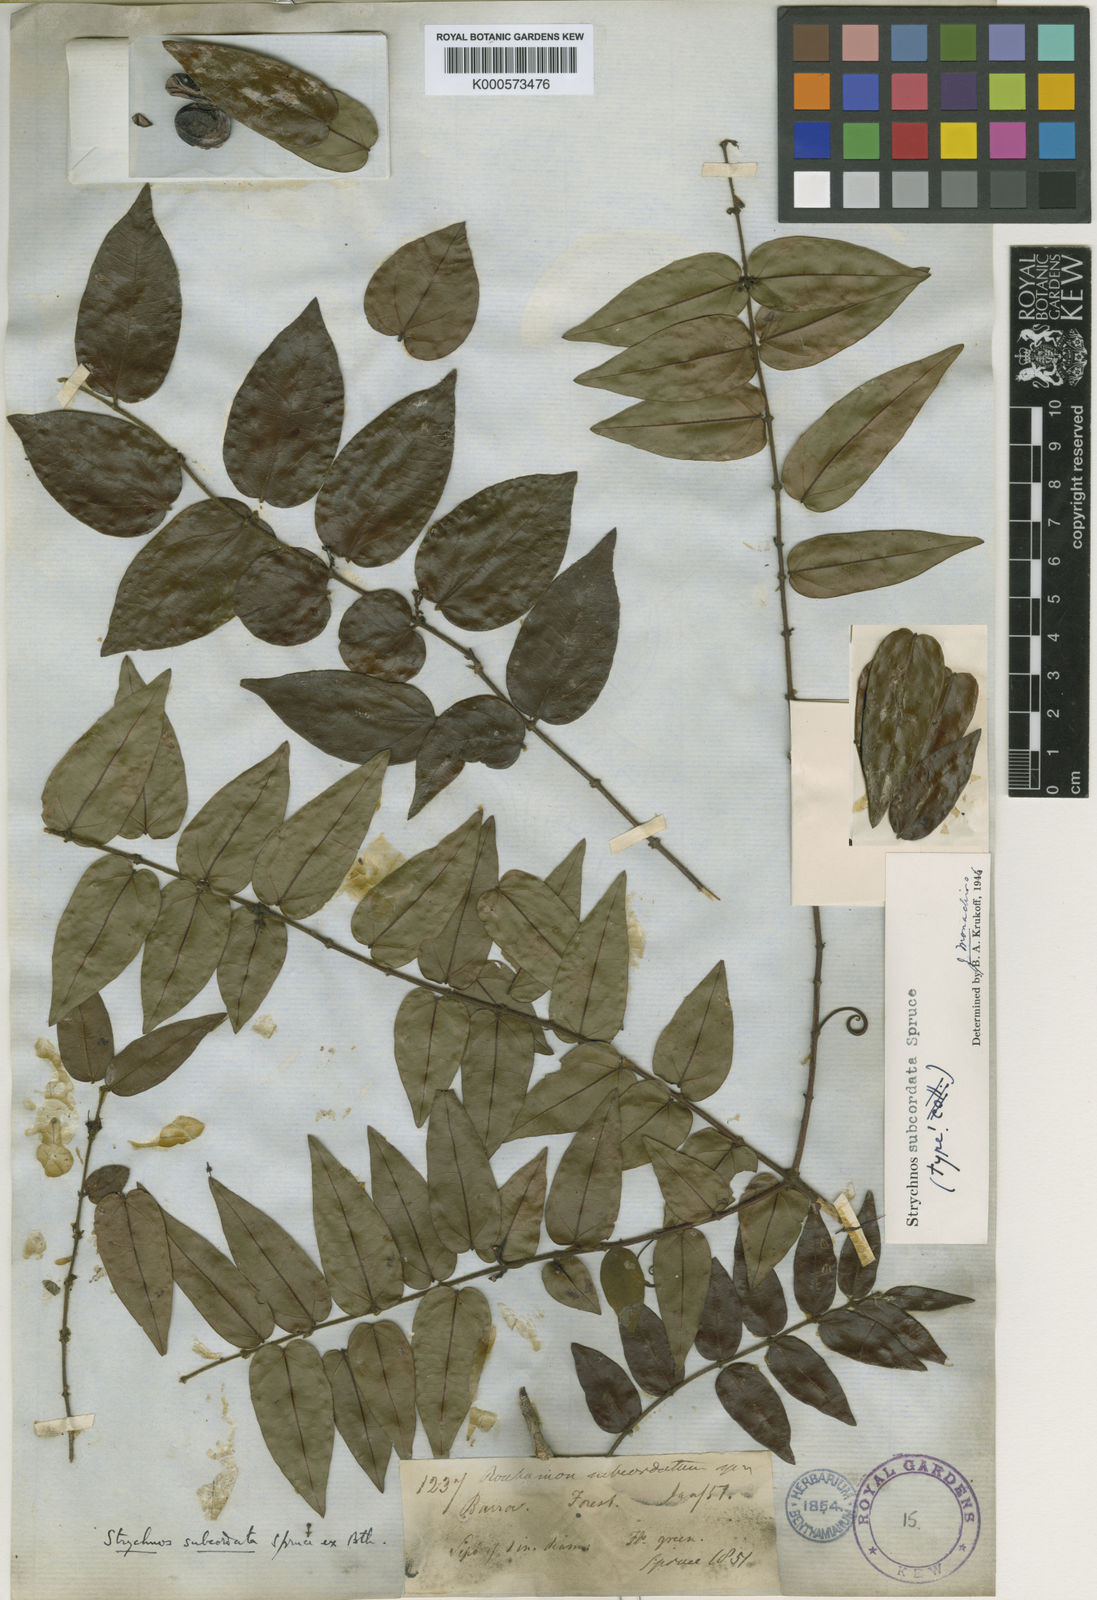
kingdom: Plantae
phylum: Tracheophyta
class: Magnoliopsida
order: Gentianales
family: Loganiaceae
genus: Strychnos
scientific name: Strychnos subcordata
